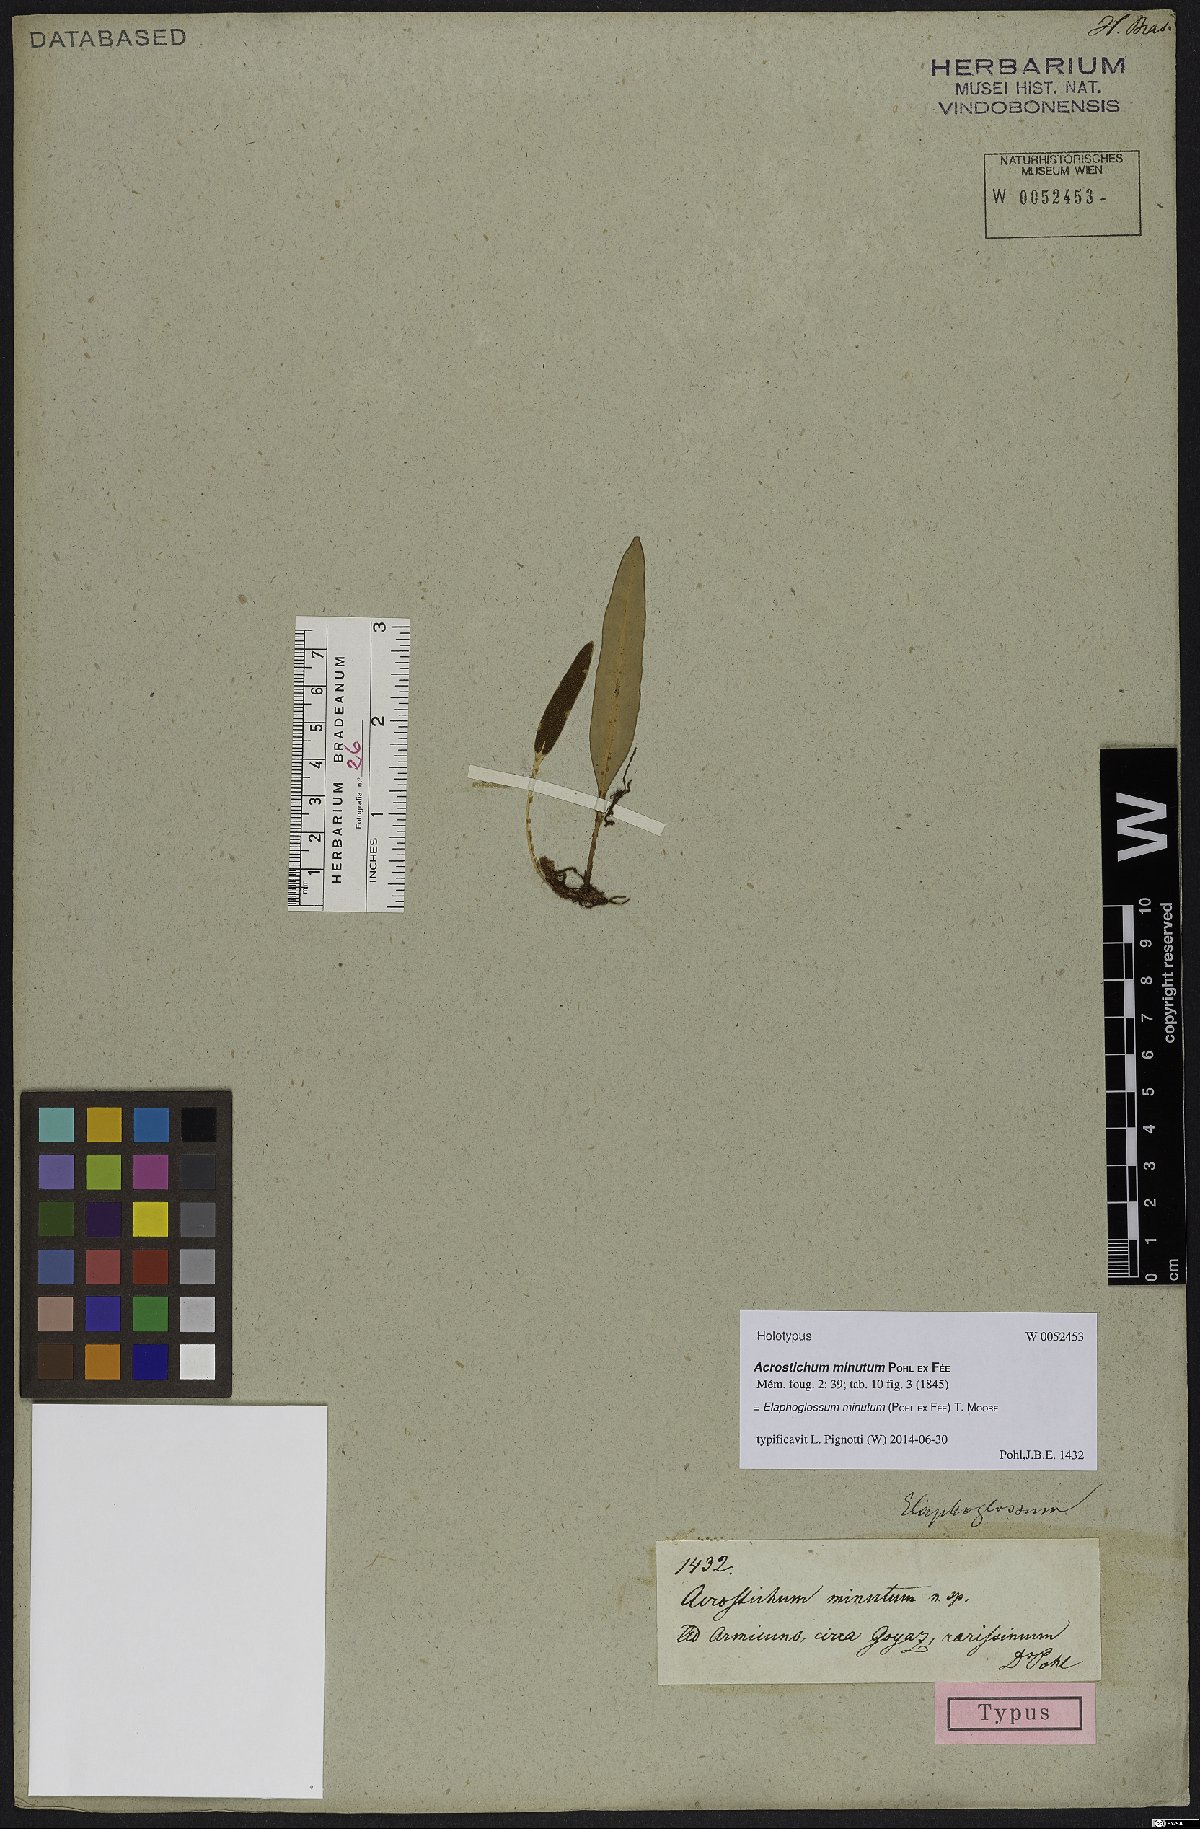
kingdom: Plantae
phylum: Tracheophyta
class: Polypodiopsida
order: Polypodiales
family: Dryopteridaceae
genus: Elaphoglossum
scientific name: Elaphoglossum minutum
